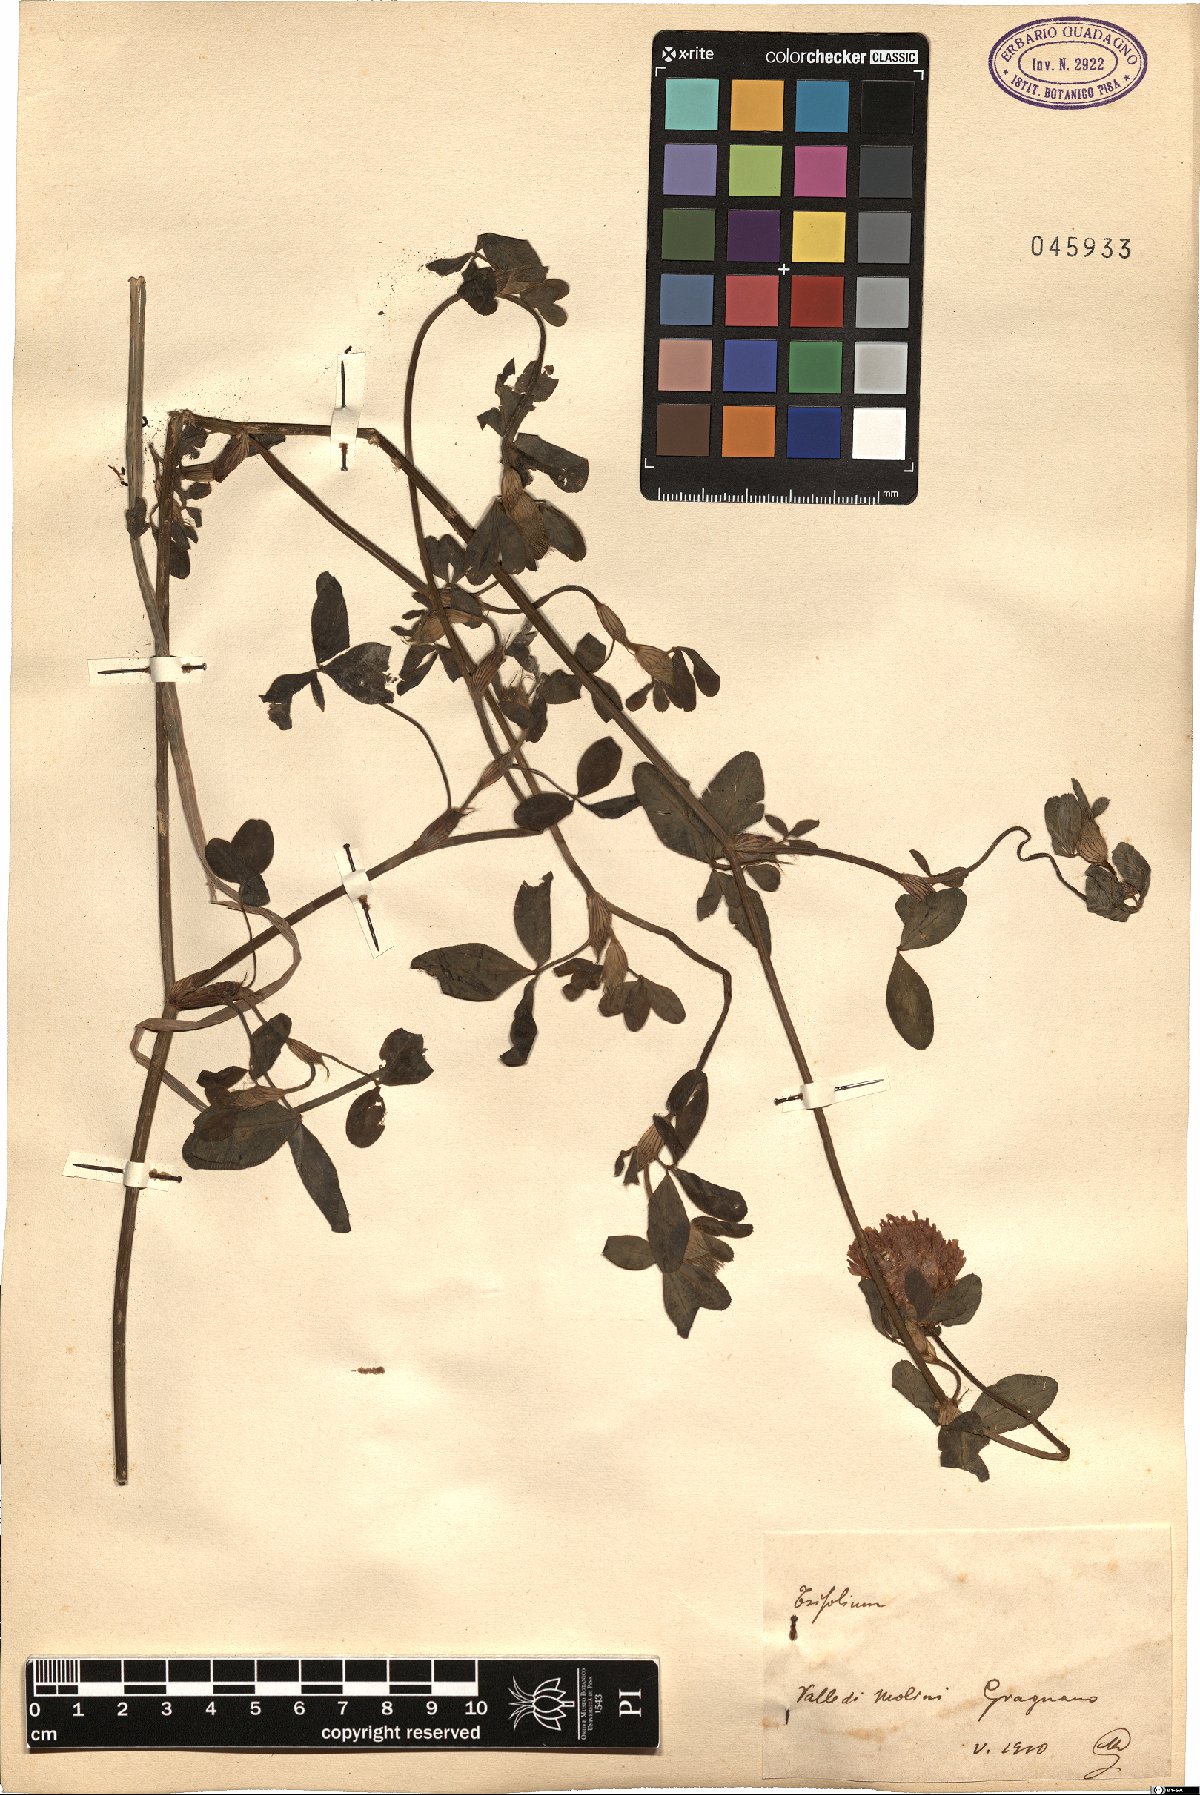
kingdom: Plantae
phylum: Tracheophyta
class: Magnoliopsida
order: Fabales
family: Fabaceae
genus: Trifolium
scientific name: Trifolium
